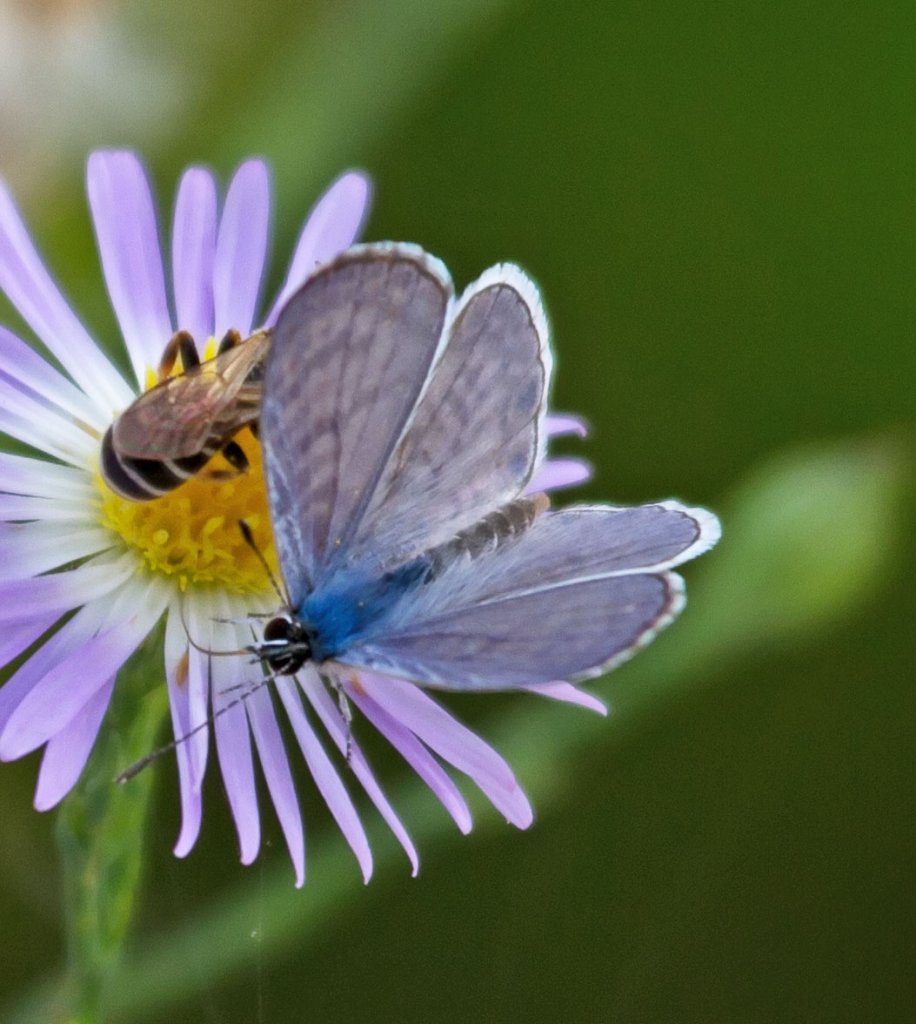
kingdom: Animalia
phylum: Arthropoda
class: Insecta
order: Lepidoptera
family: Lycaenidae
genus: Leptotes
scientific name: Leptotes cassius
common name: Cassius Blue
